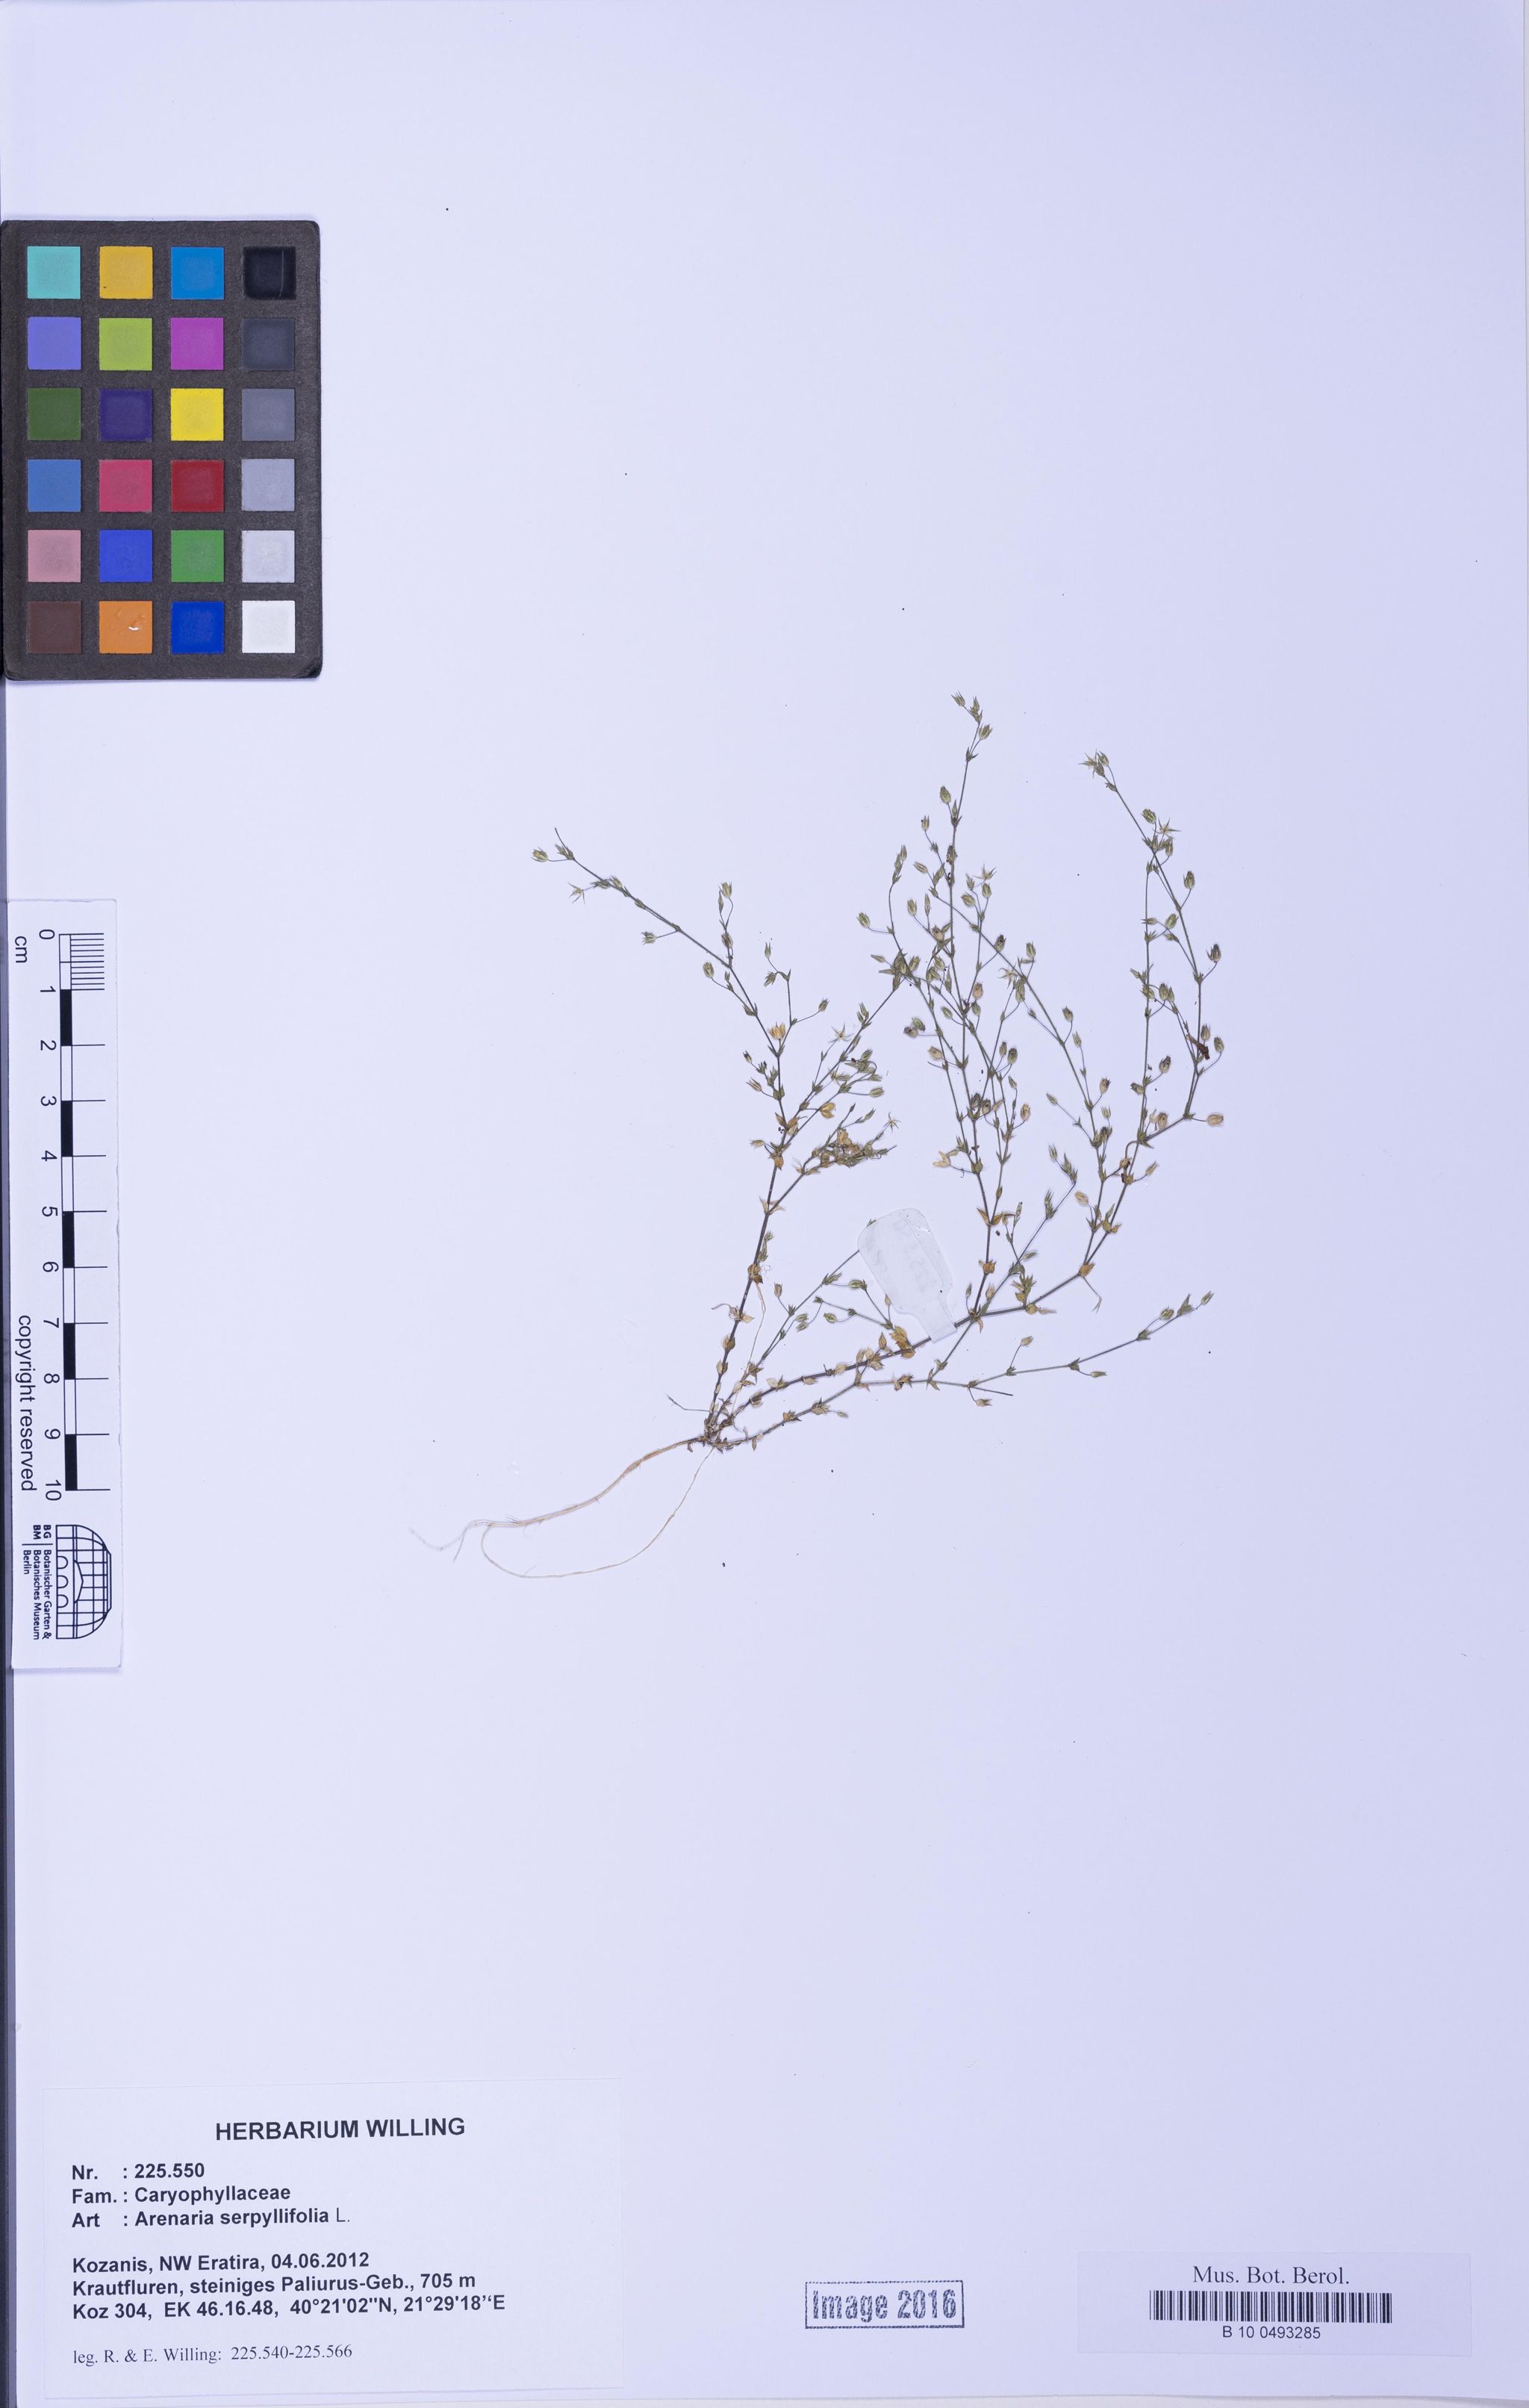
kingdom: Plantae
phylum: Tracheophyta
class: Magnoliopsida
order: Caryophyllales
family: Caryophyllaceae
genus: Arenaria
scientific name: Arenaria serpyllifolia
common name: Thyme-leaved sandwort
